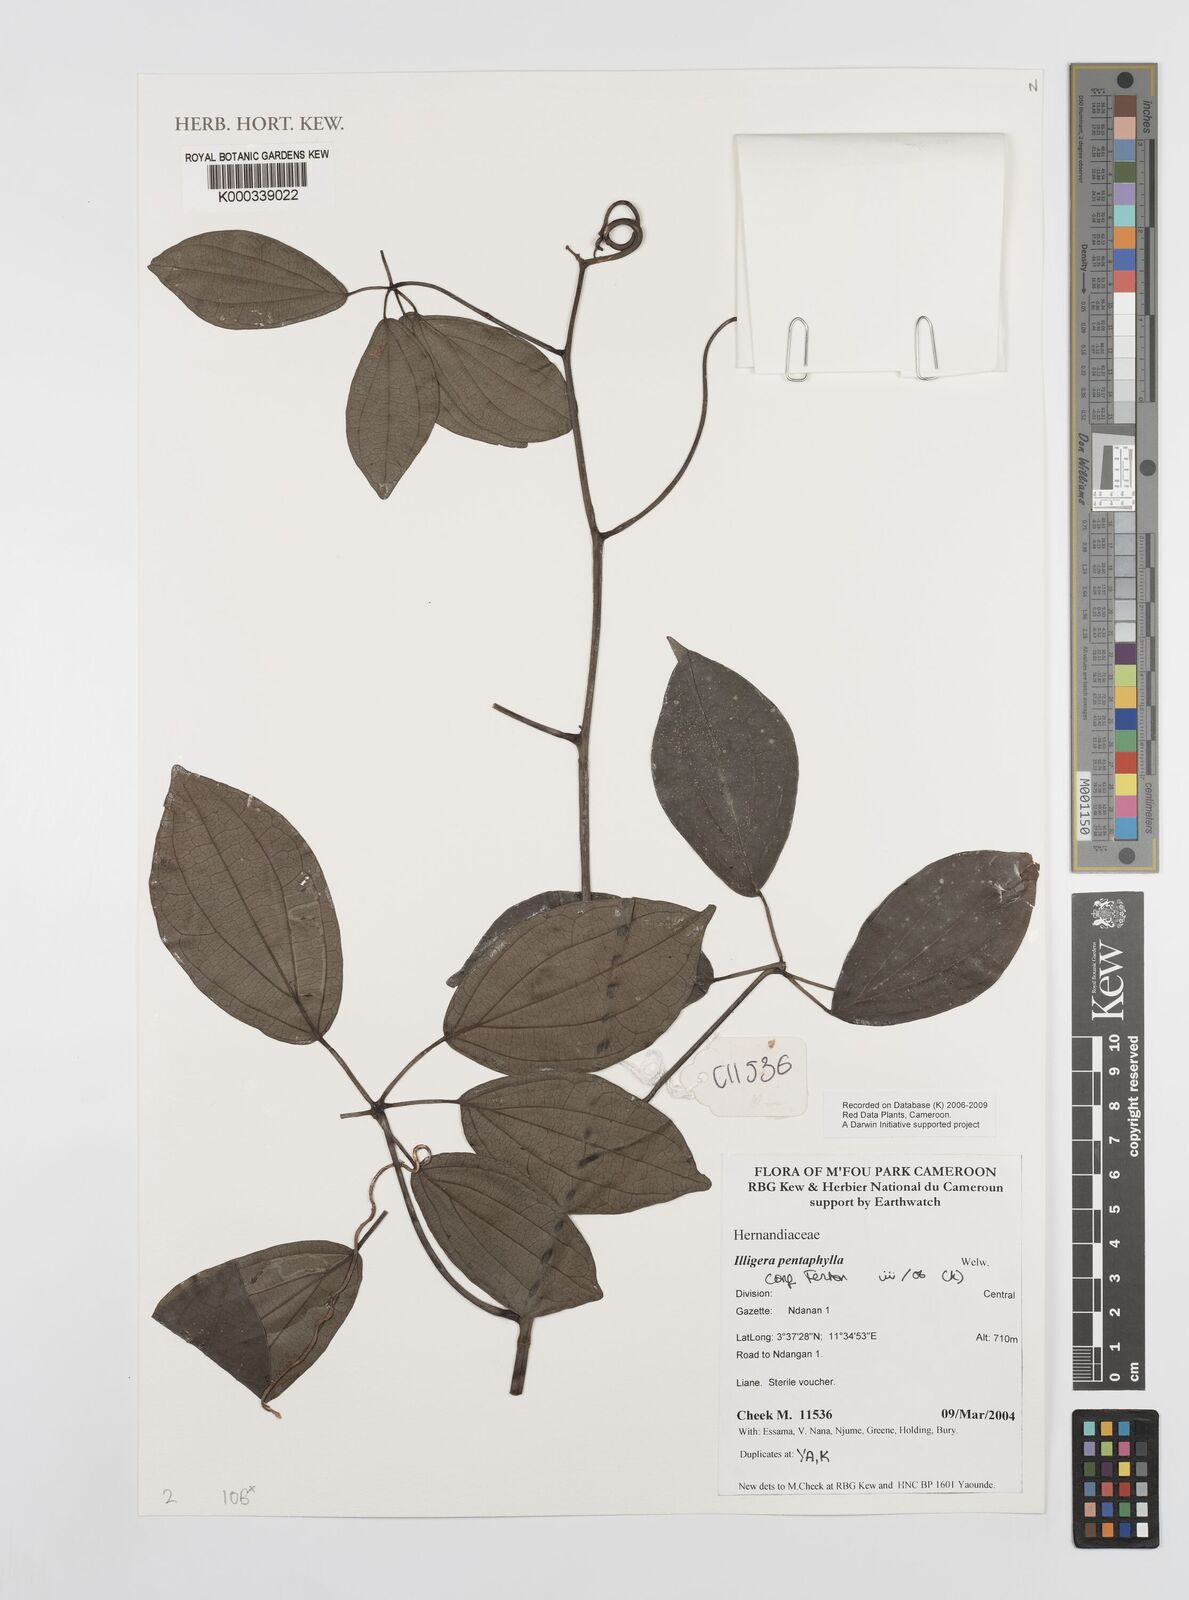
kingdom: Plantae
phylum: Tracheophyta
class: Magnoliopsida
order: Laurales
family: Hernandiaceae
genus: Illigera
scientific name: Illigera pentaphylla
